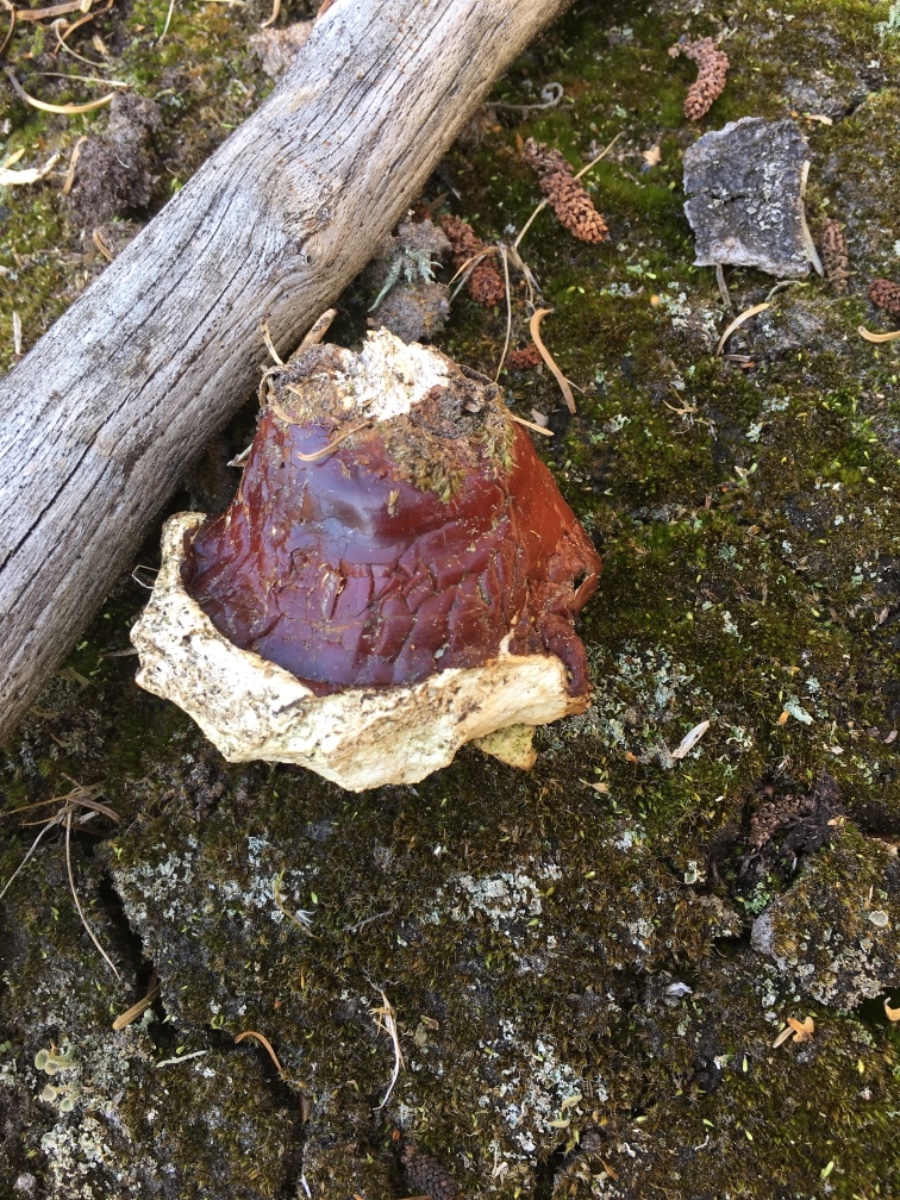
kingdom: Fungi
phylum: Basidiomycota
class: Agaricomycetes
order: Polyporales
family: Polyporaceae
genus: Ganoderma
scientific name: Ganoderma lucidum
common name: skinnende lakporesvamp
